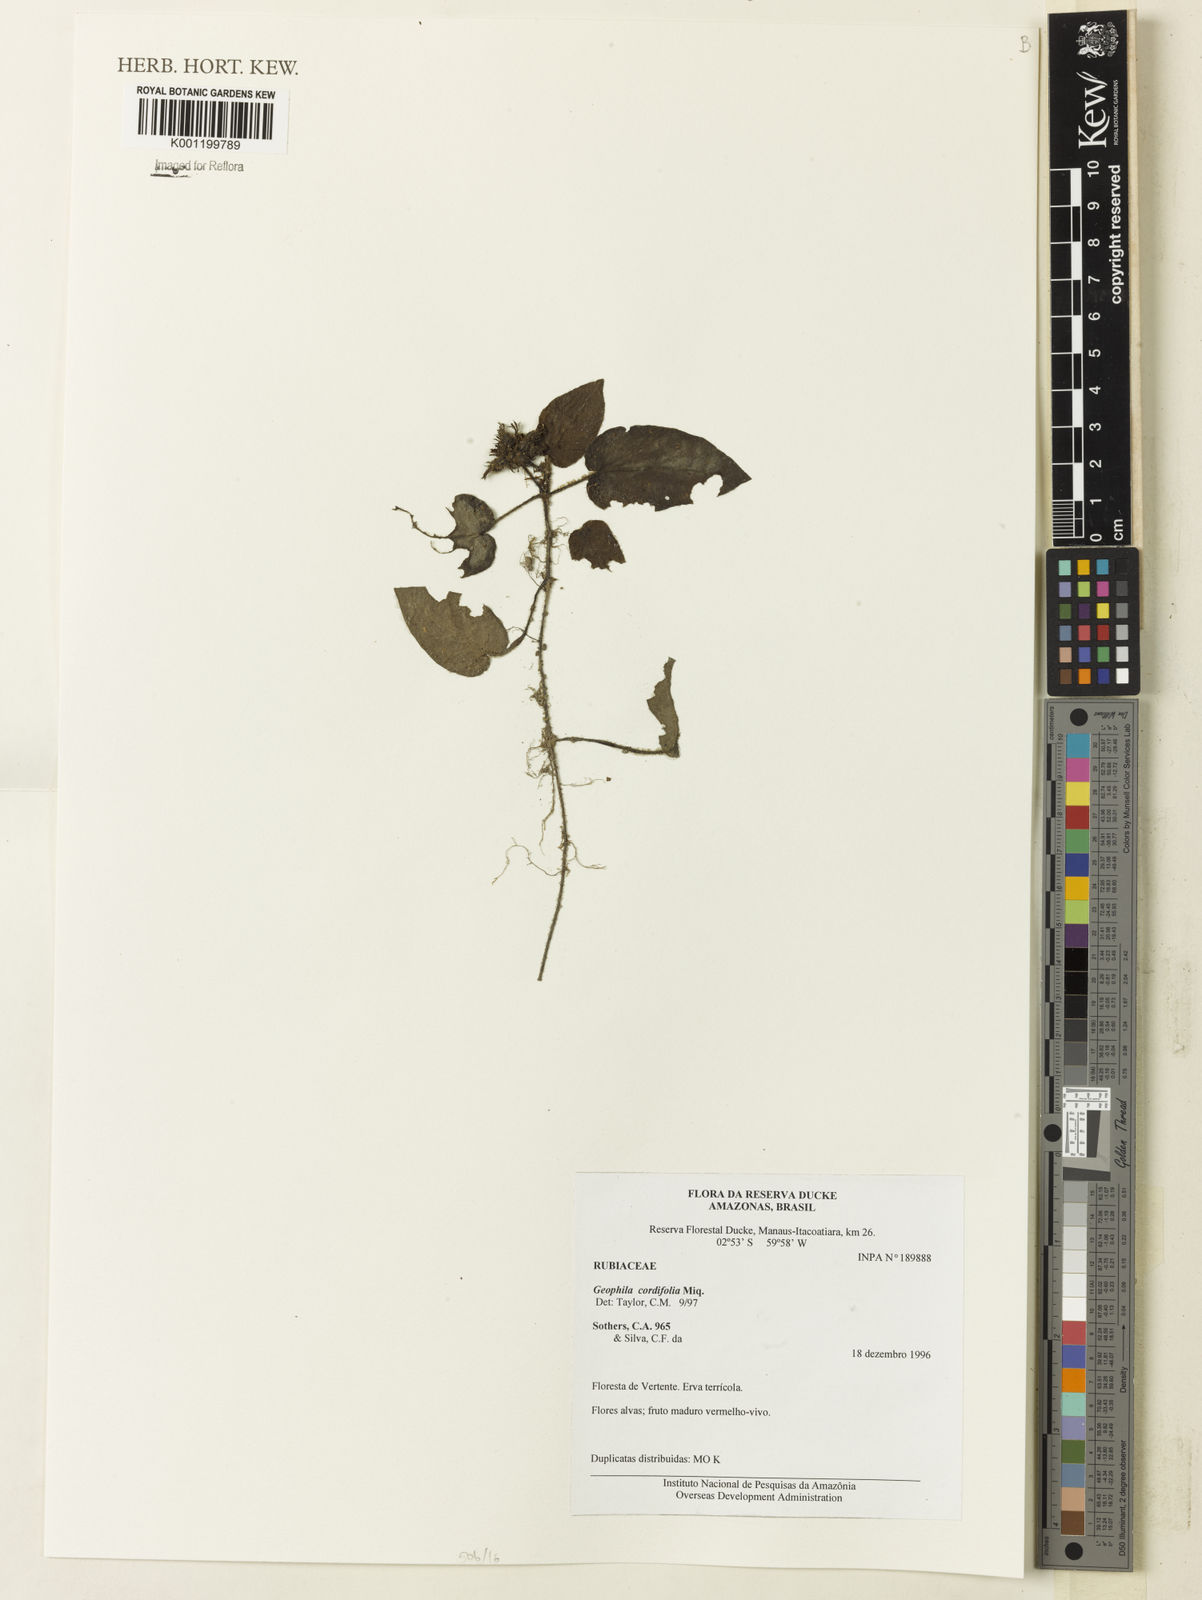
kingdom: Plantae
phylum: Tracheophyta
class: Magnoliopsida
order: Gentianales
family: Rubiaceae
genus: Geophila
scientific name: Geophila cordifolia
